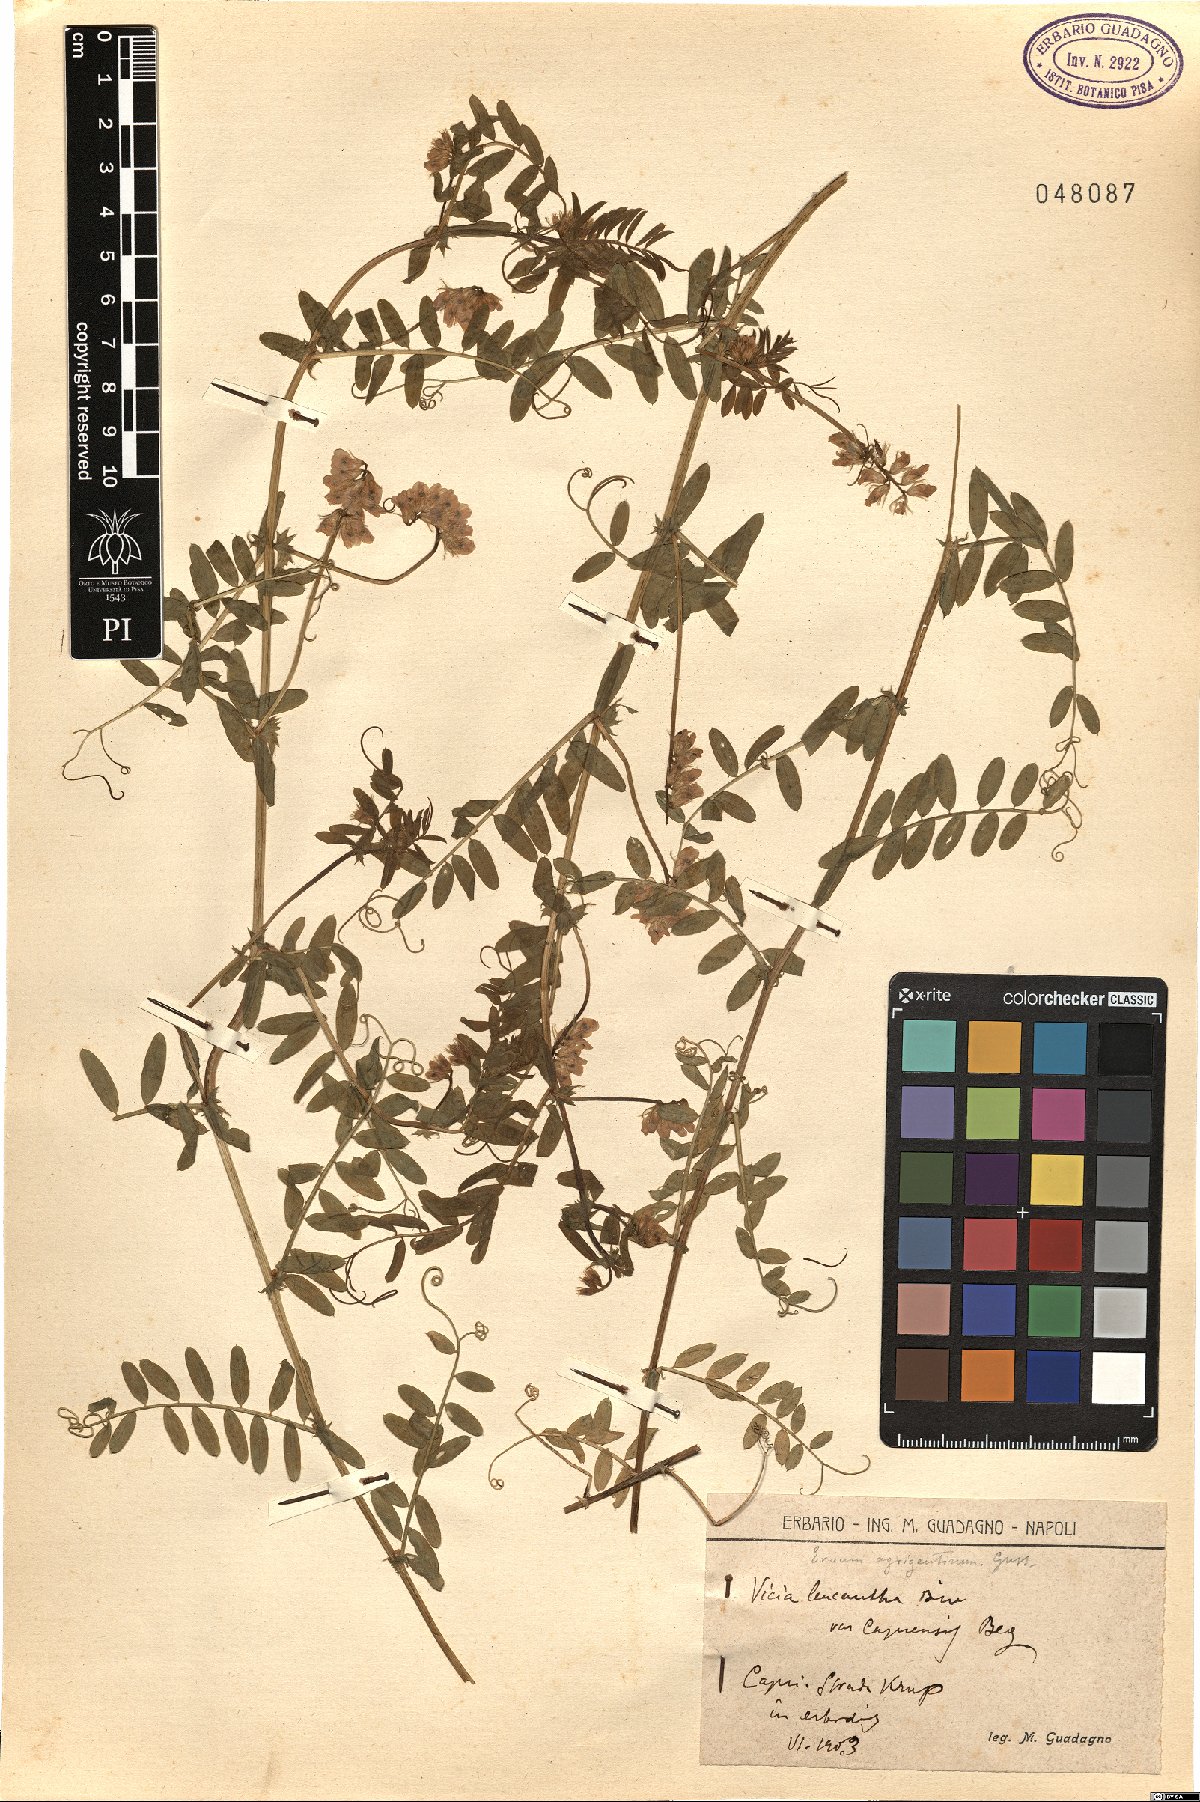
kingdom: Plantae
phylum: Tracheophyta
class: Magnoliopsida
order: Fabales
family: Fabaceae
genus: Vicia
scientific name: Vicia leucantha
